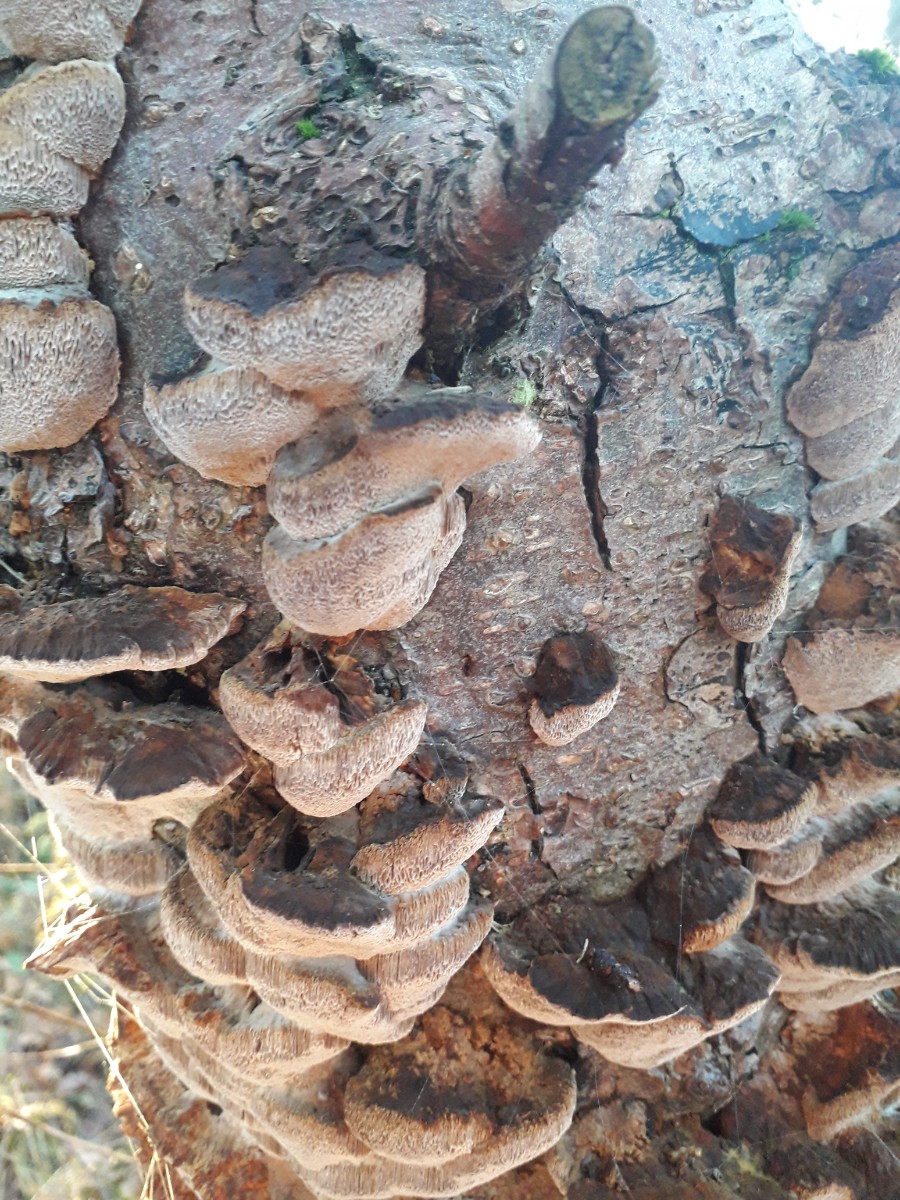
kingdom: Fungi
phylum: Basidiomycota
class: Agaricomycetes
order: Hymenochaetales
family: Hymenochaetaceae
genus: Xanthoporia
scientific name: Xanthoporia radiata
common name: elle-spejlporesvamp
